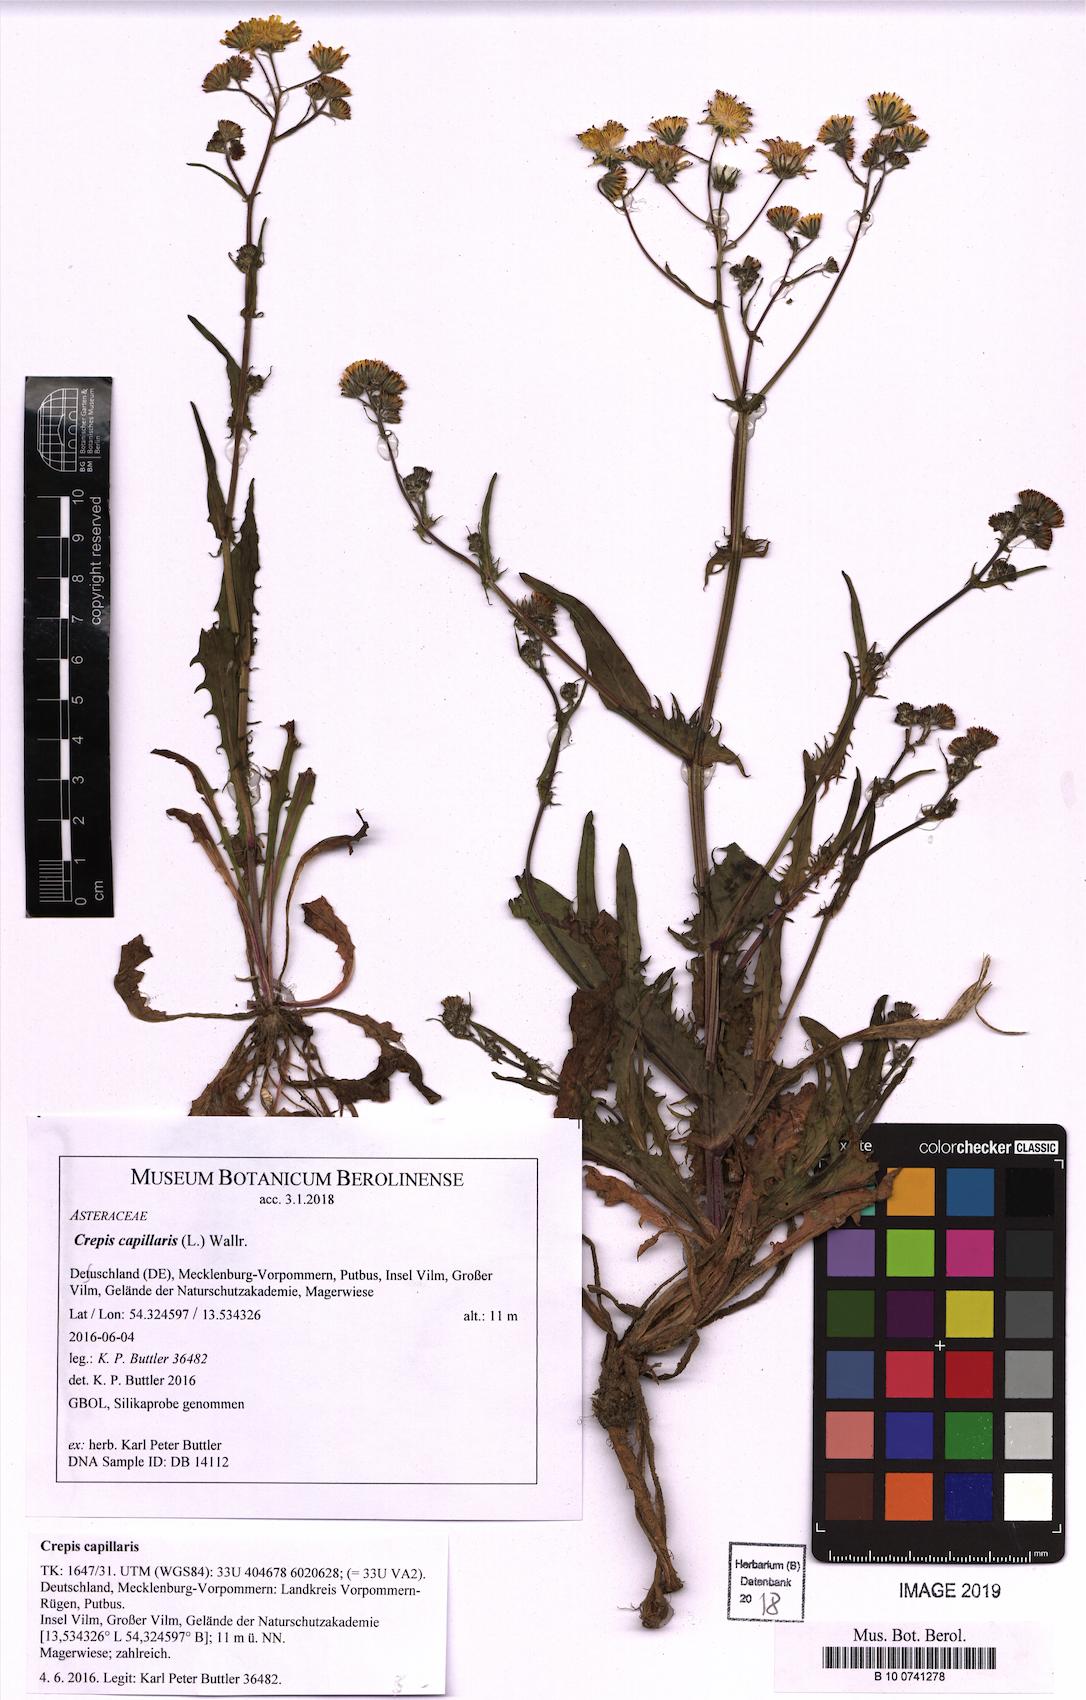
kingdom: Plantae
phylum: Tracheophyta
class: Magnoliopsida
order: Asterales
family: Asteraceae
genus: Crepis
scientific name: Crepis capillaris
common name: Smooth hawksbeard
